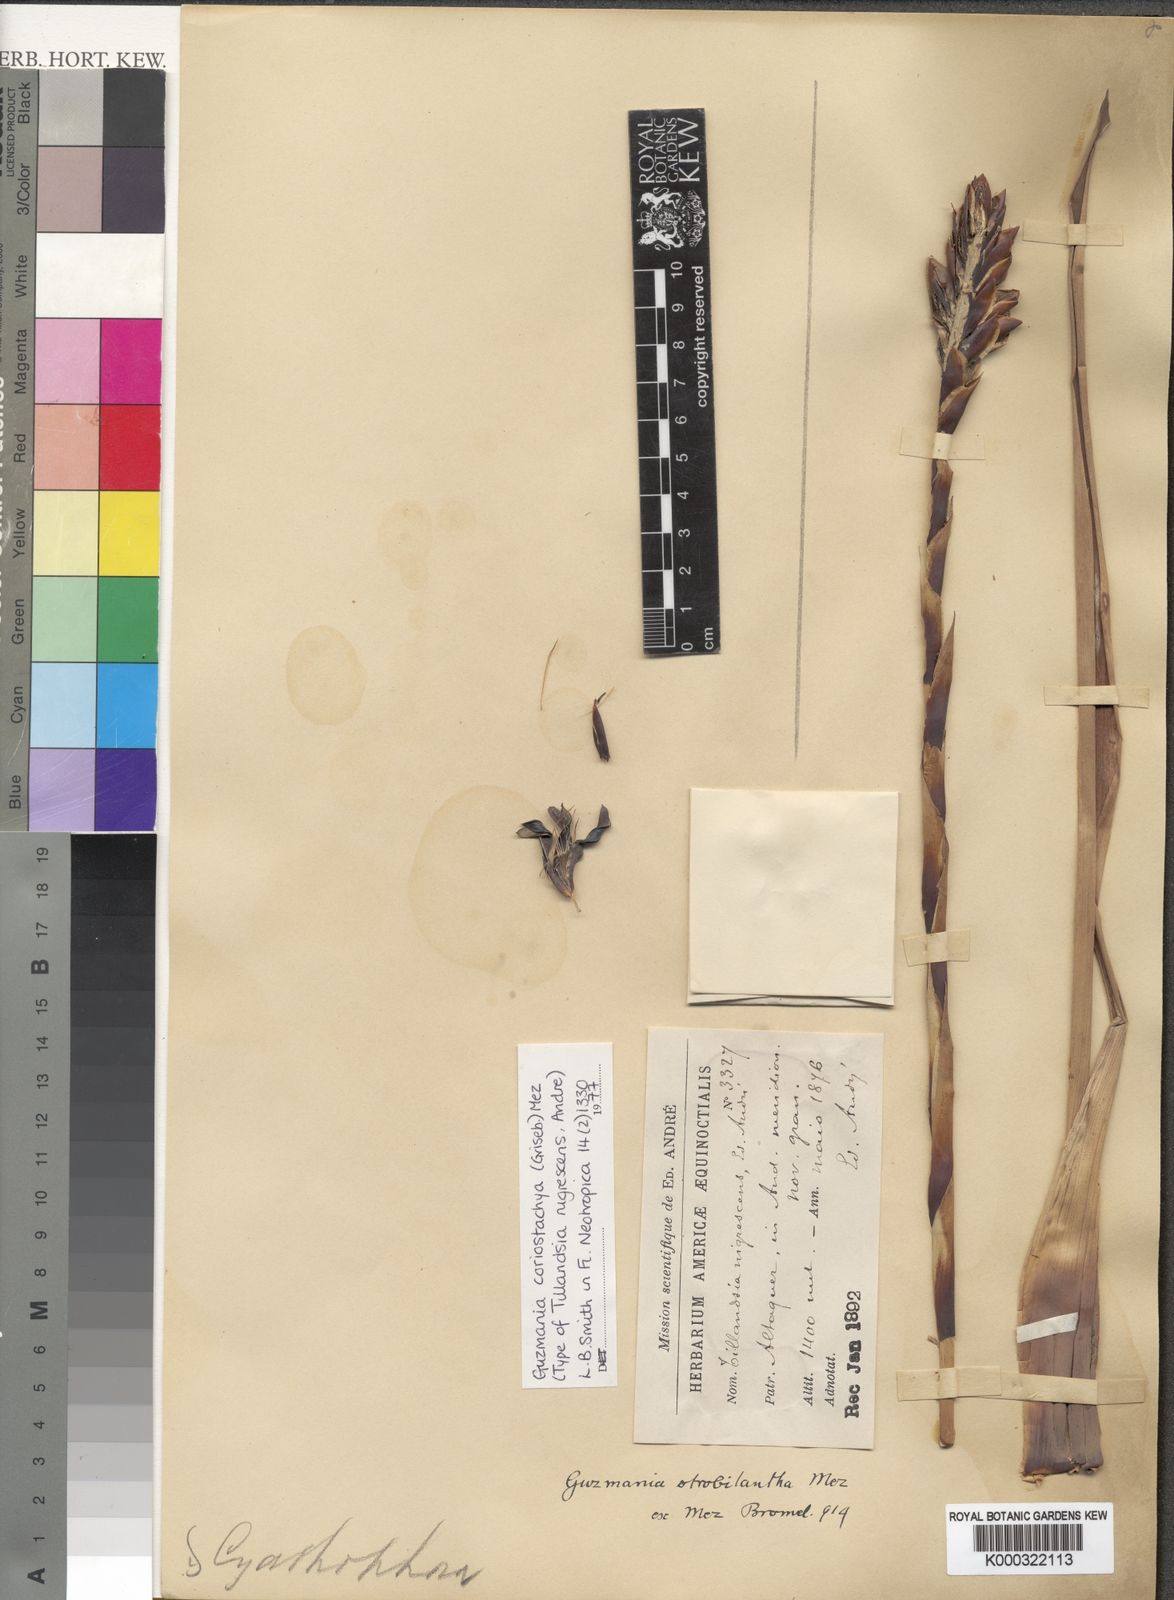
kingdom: Plantae
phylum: Tracheophyta
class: Liliopsida
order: Poales
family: Bromeliaceae
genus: Guzmania
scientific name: Guzmania coriostachya
